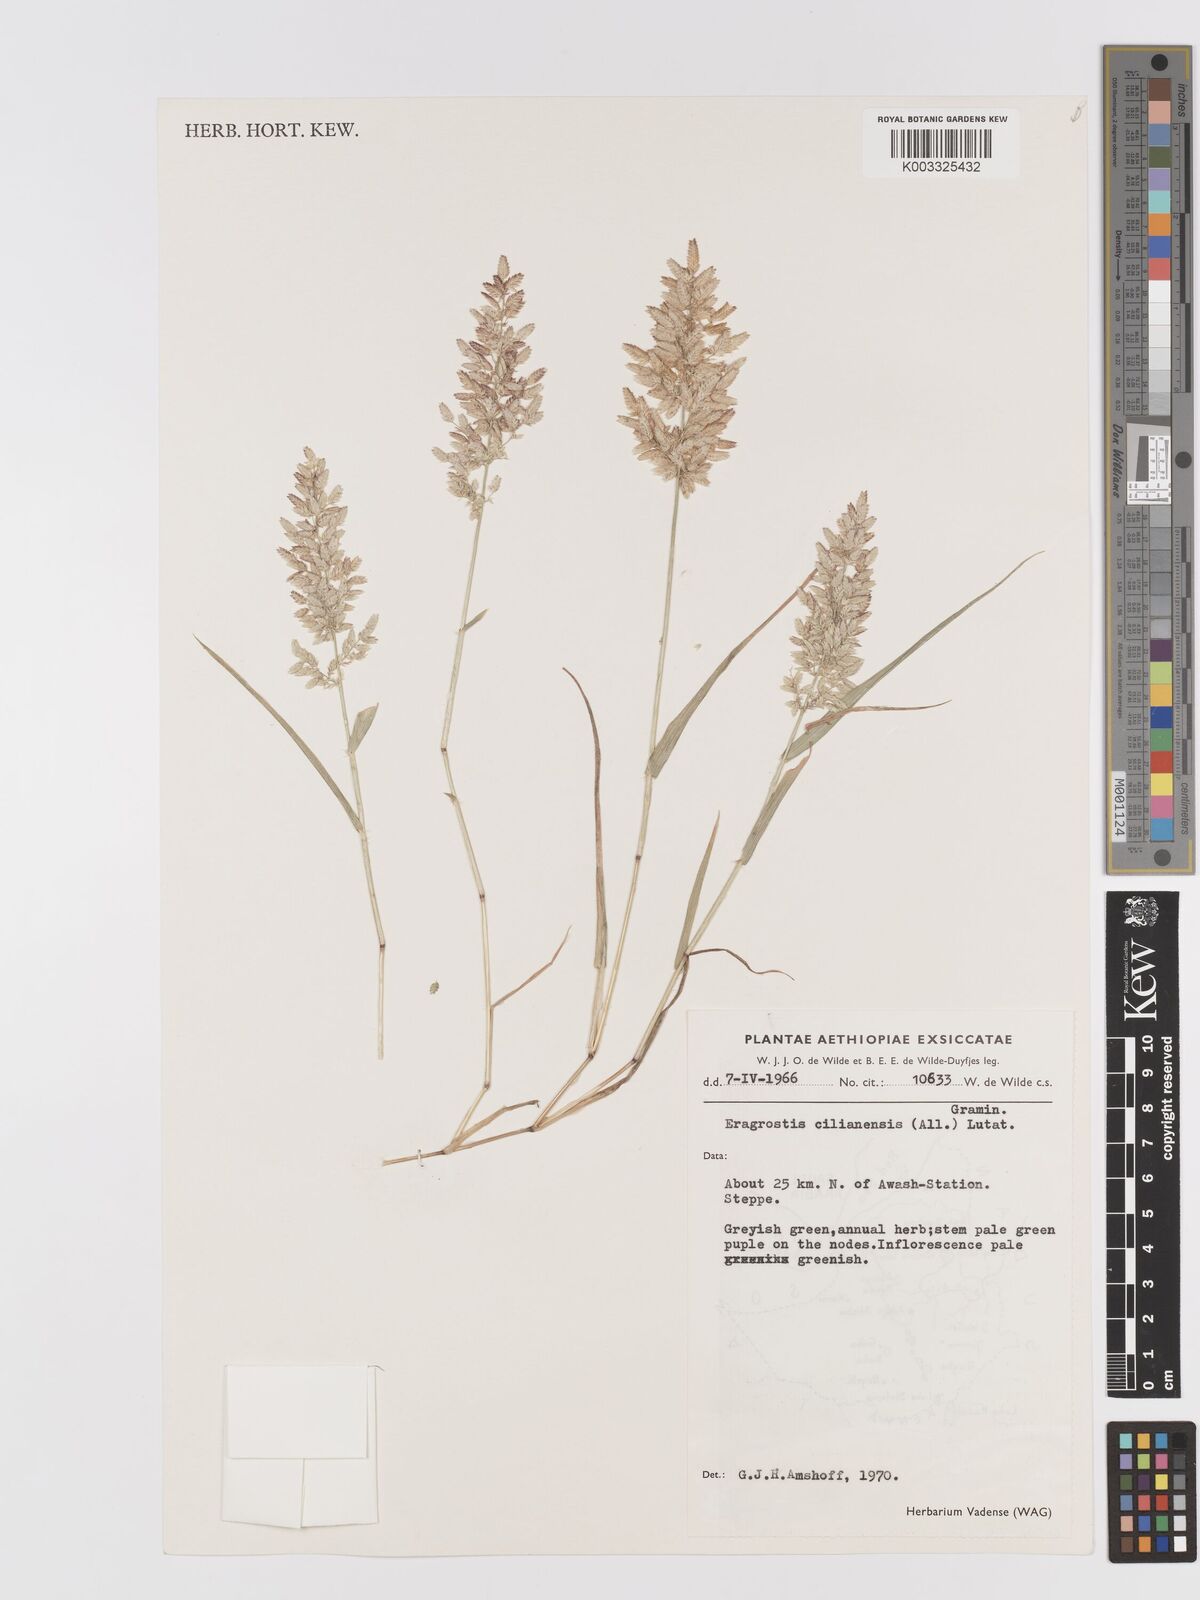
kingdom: Plantae
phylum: Tracheophyta
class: Liliopsida
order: Poales
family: Poaceae
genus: Eragrostis
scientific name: Eragrostis cilianensis
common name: Stinkgrass
